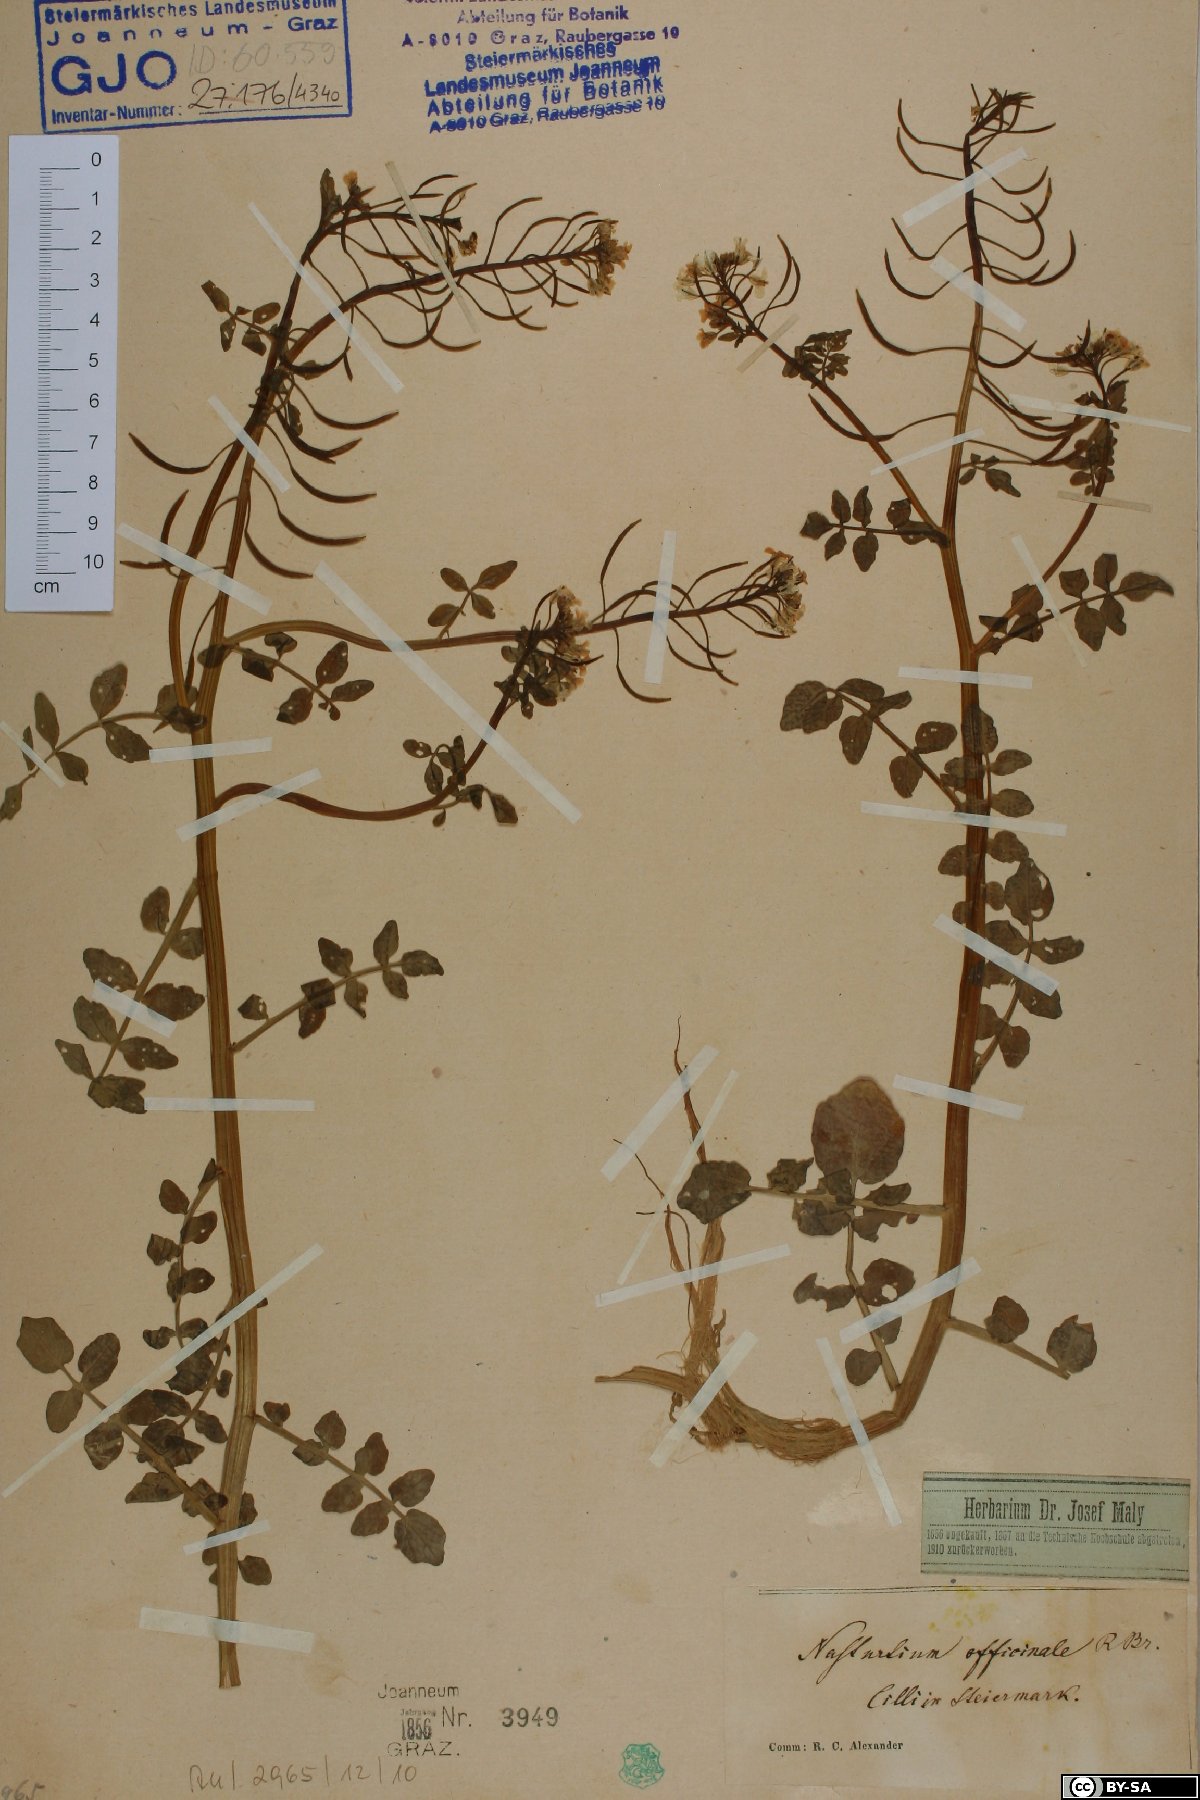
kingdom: Plantae
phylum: Tracheophyta
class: Magnoliopsida
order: Brassicales
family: Brassicaceae
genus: Nasturtium
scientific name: Nasturtium officinale
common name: Watercress
